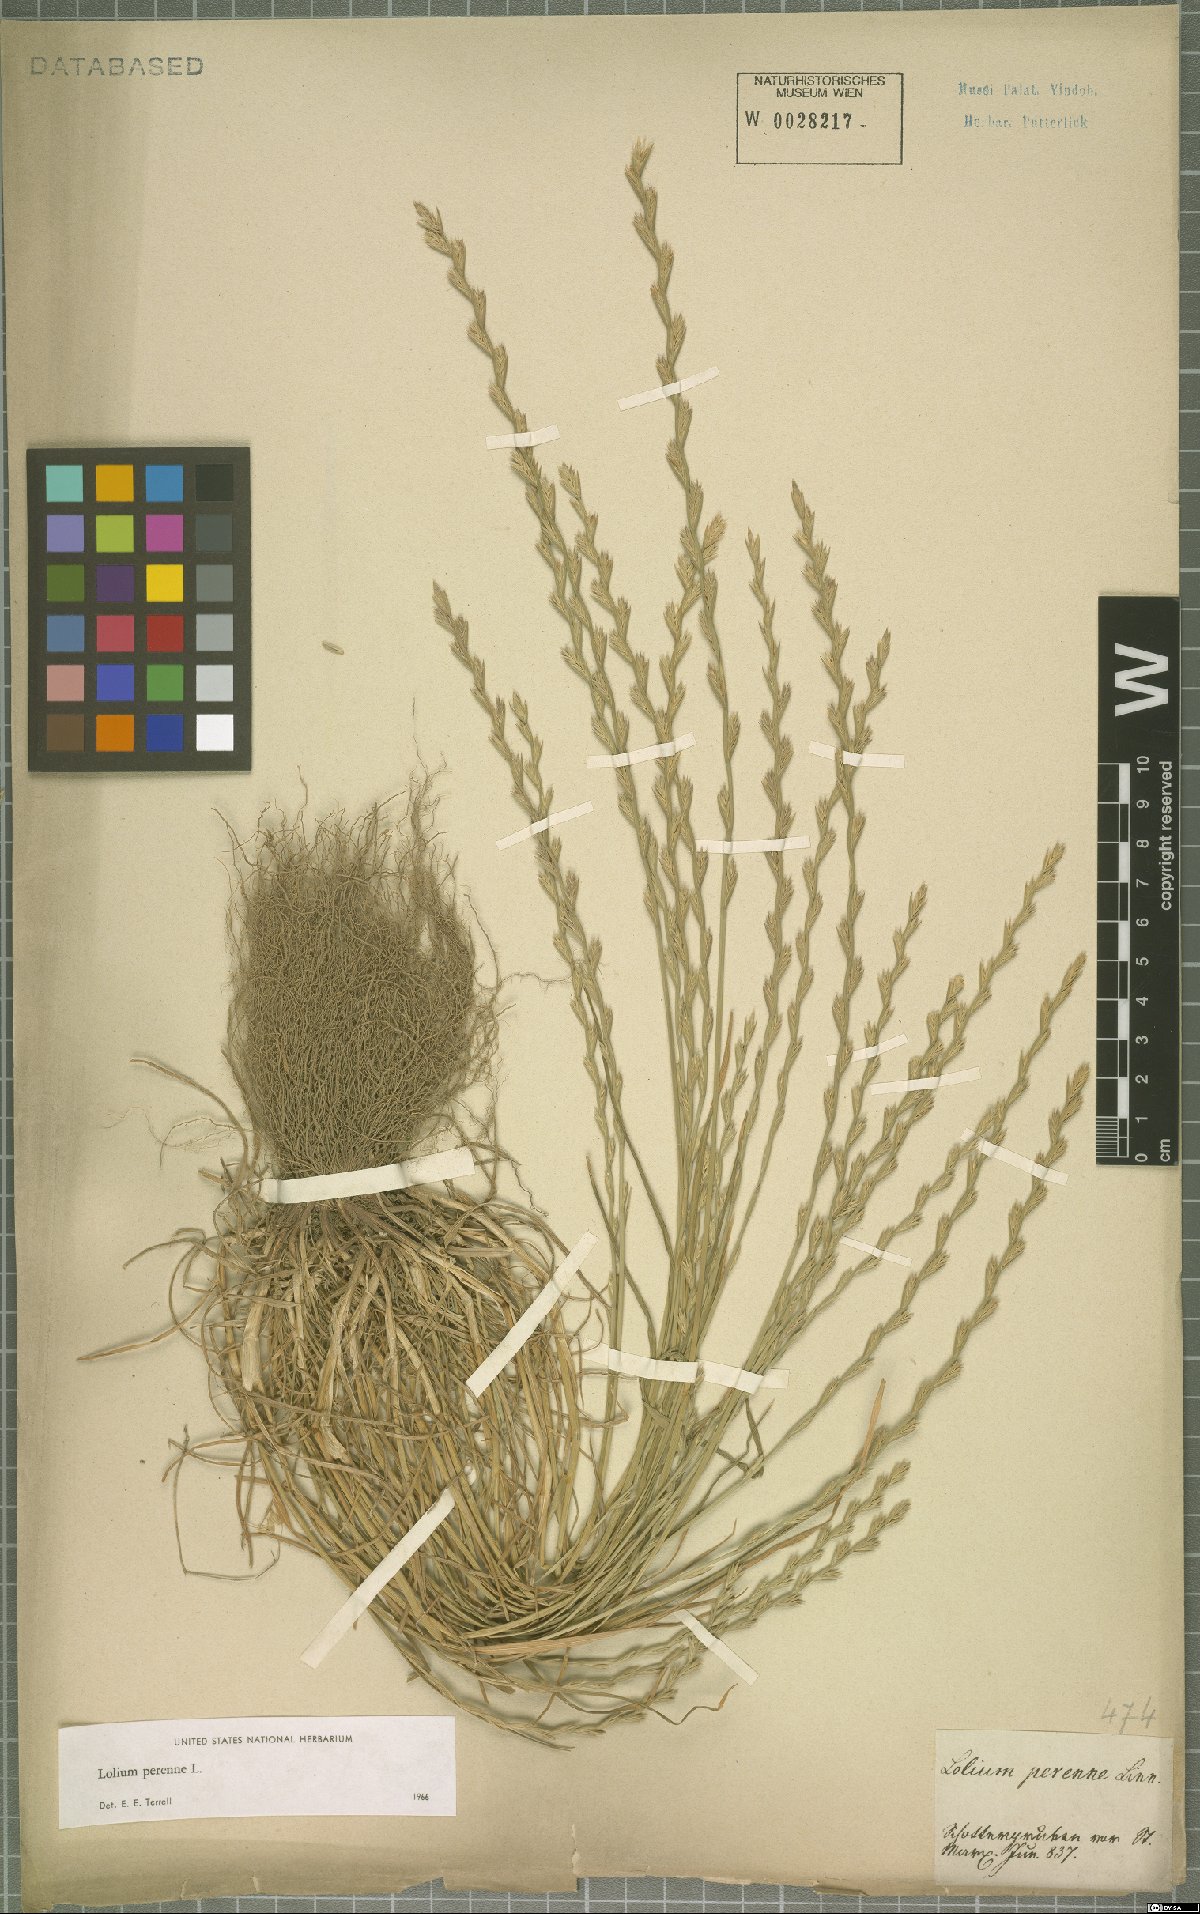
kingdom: Plantae
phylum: Tracheophyta
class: Liliopsida
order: Poales
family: Poaceae
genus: Lolium
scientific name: Lolium perenne
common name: Perennial ryegrass
